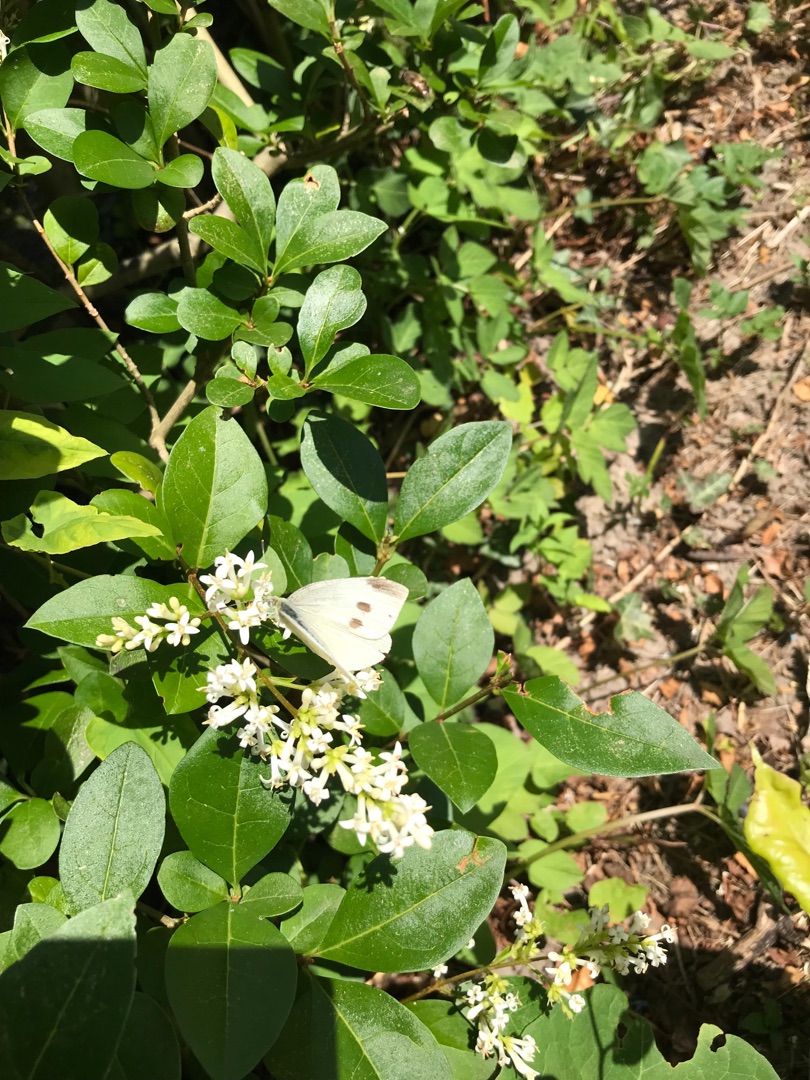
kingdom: Animalia
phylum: Arthropoda
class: Insecta
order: Lepidoptera
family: Pieridae
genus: Pieris
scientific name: Pieris rapae
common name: Lille kålsommerfugl
